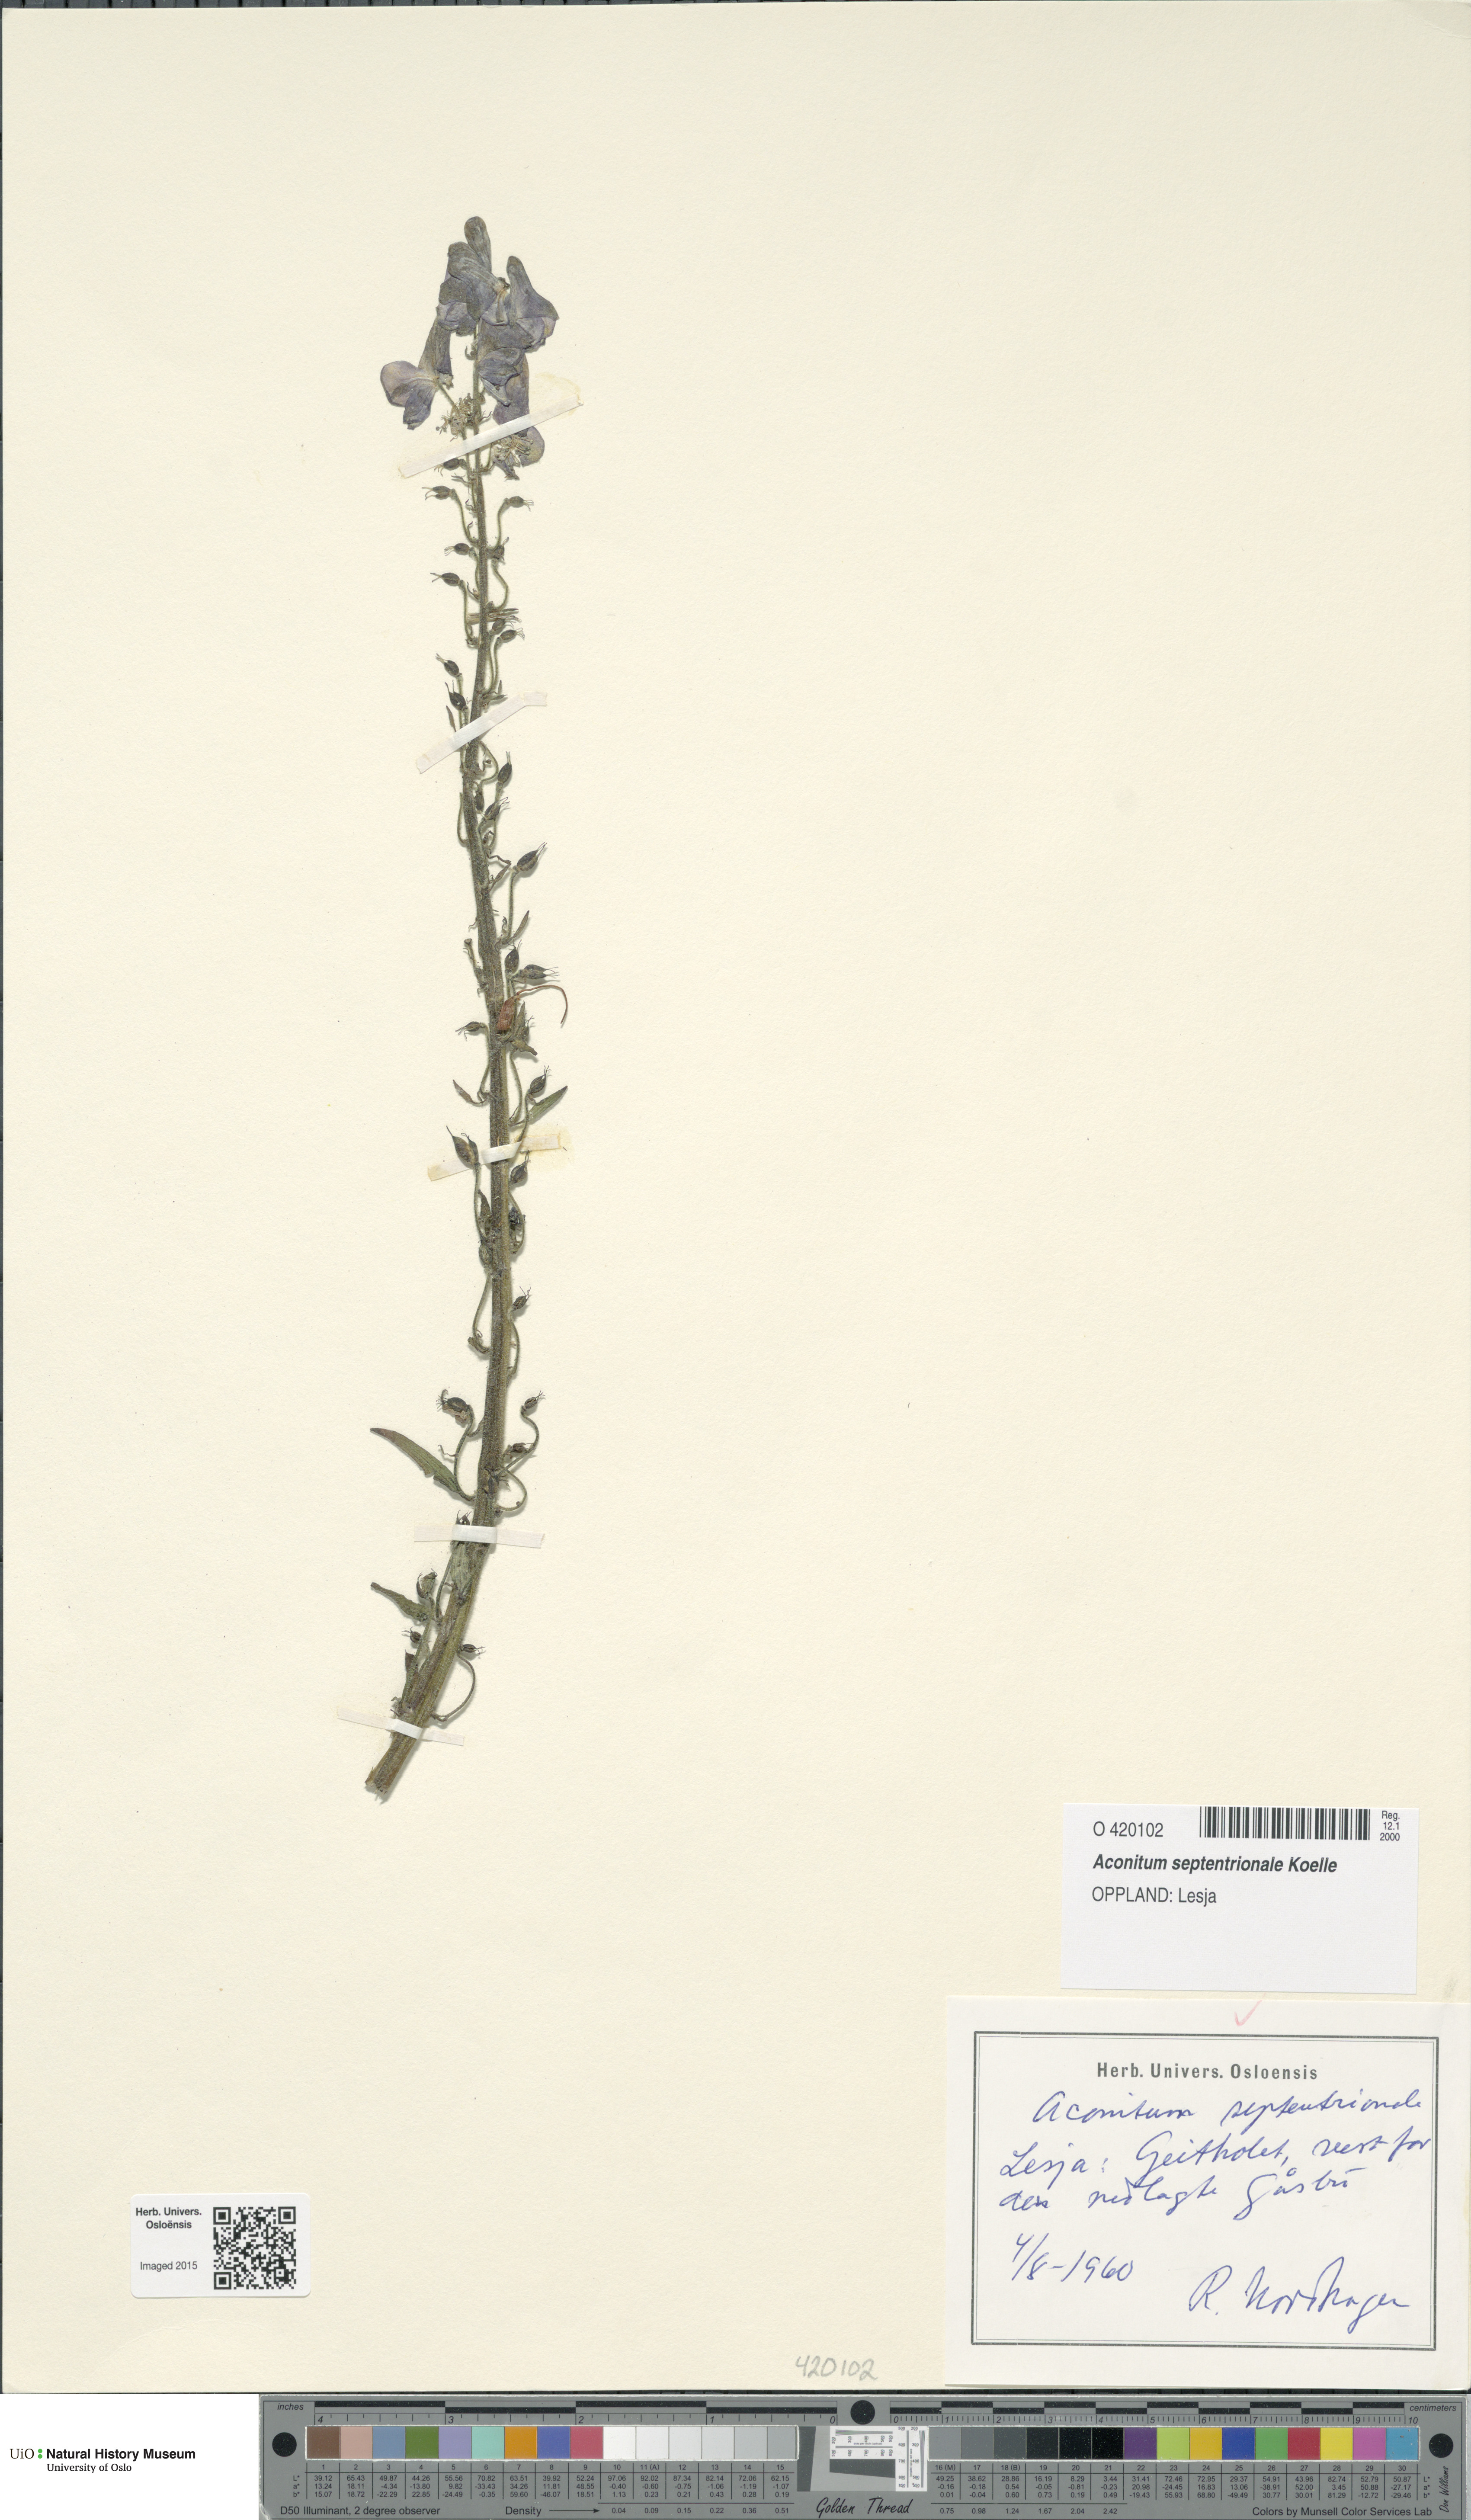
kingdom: Plantae
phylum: Tracheophyta
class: Magnoliopsida
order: Ranunculales
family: Ranunculaceae
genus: Aconitum
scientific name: Aconitum septentrionale
